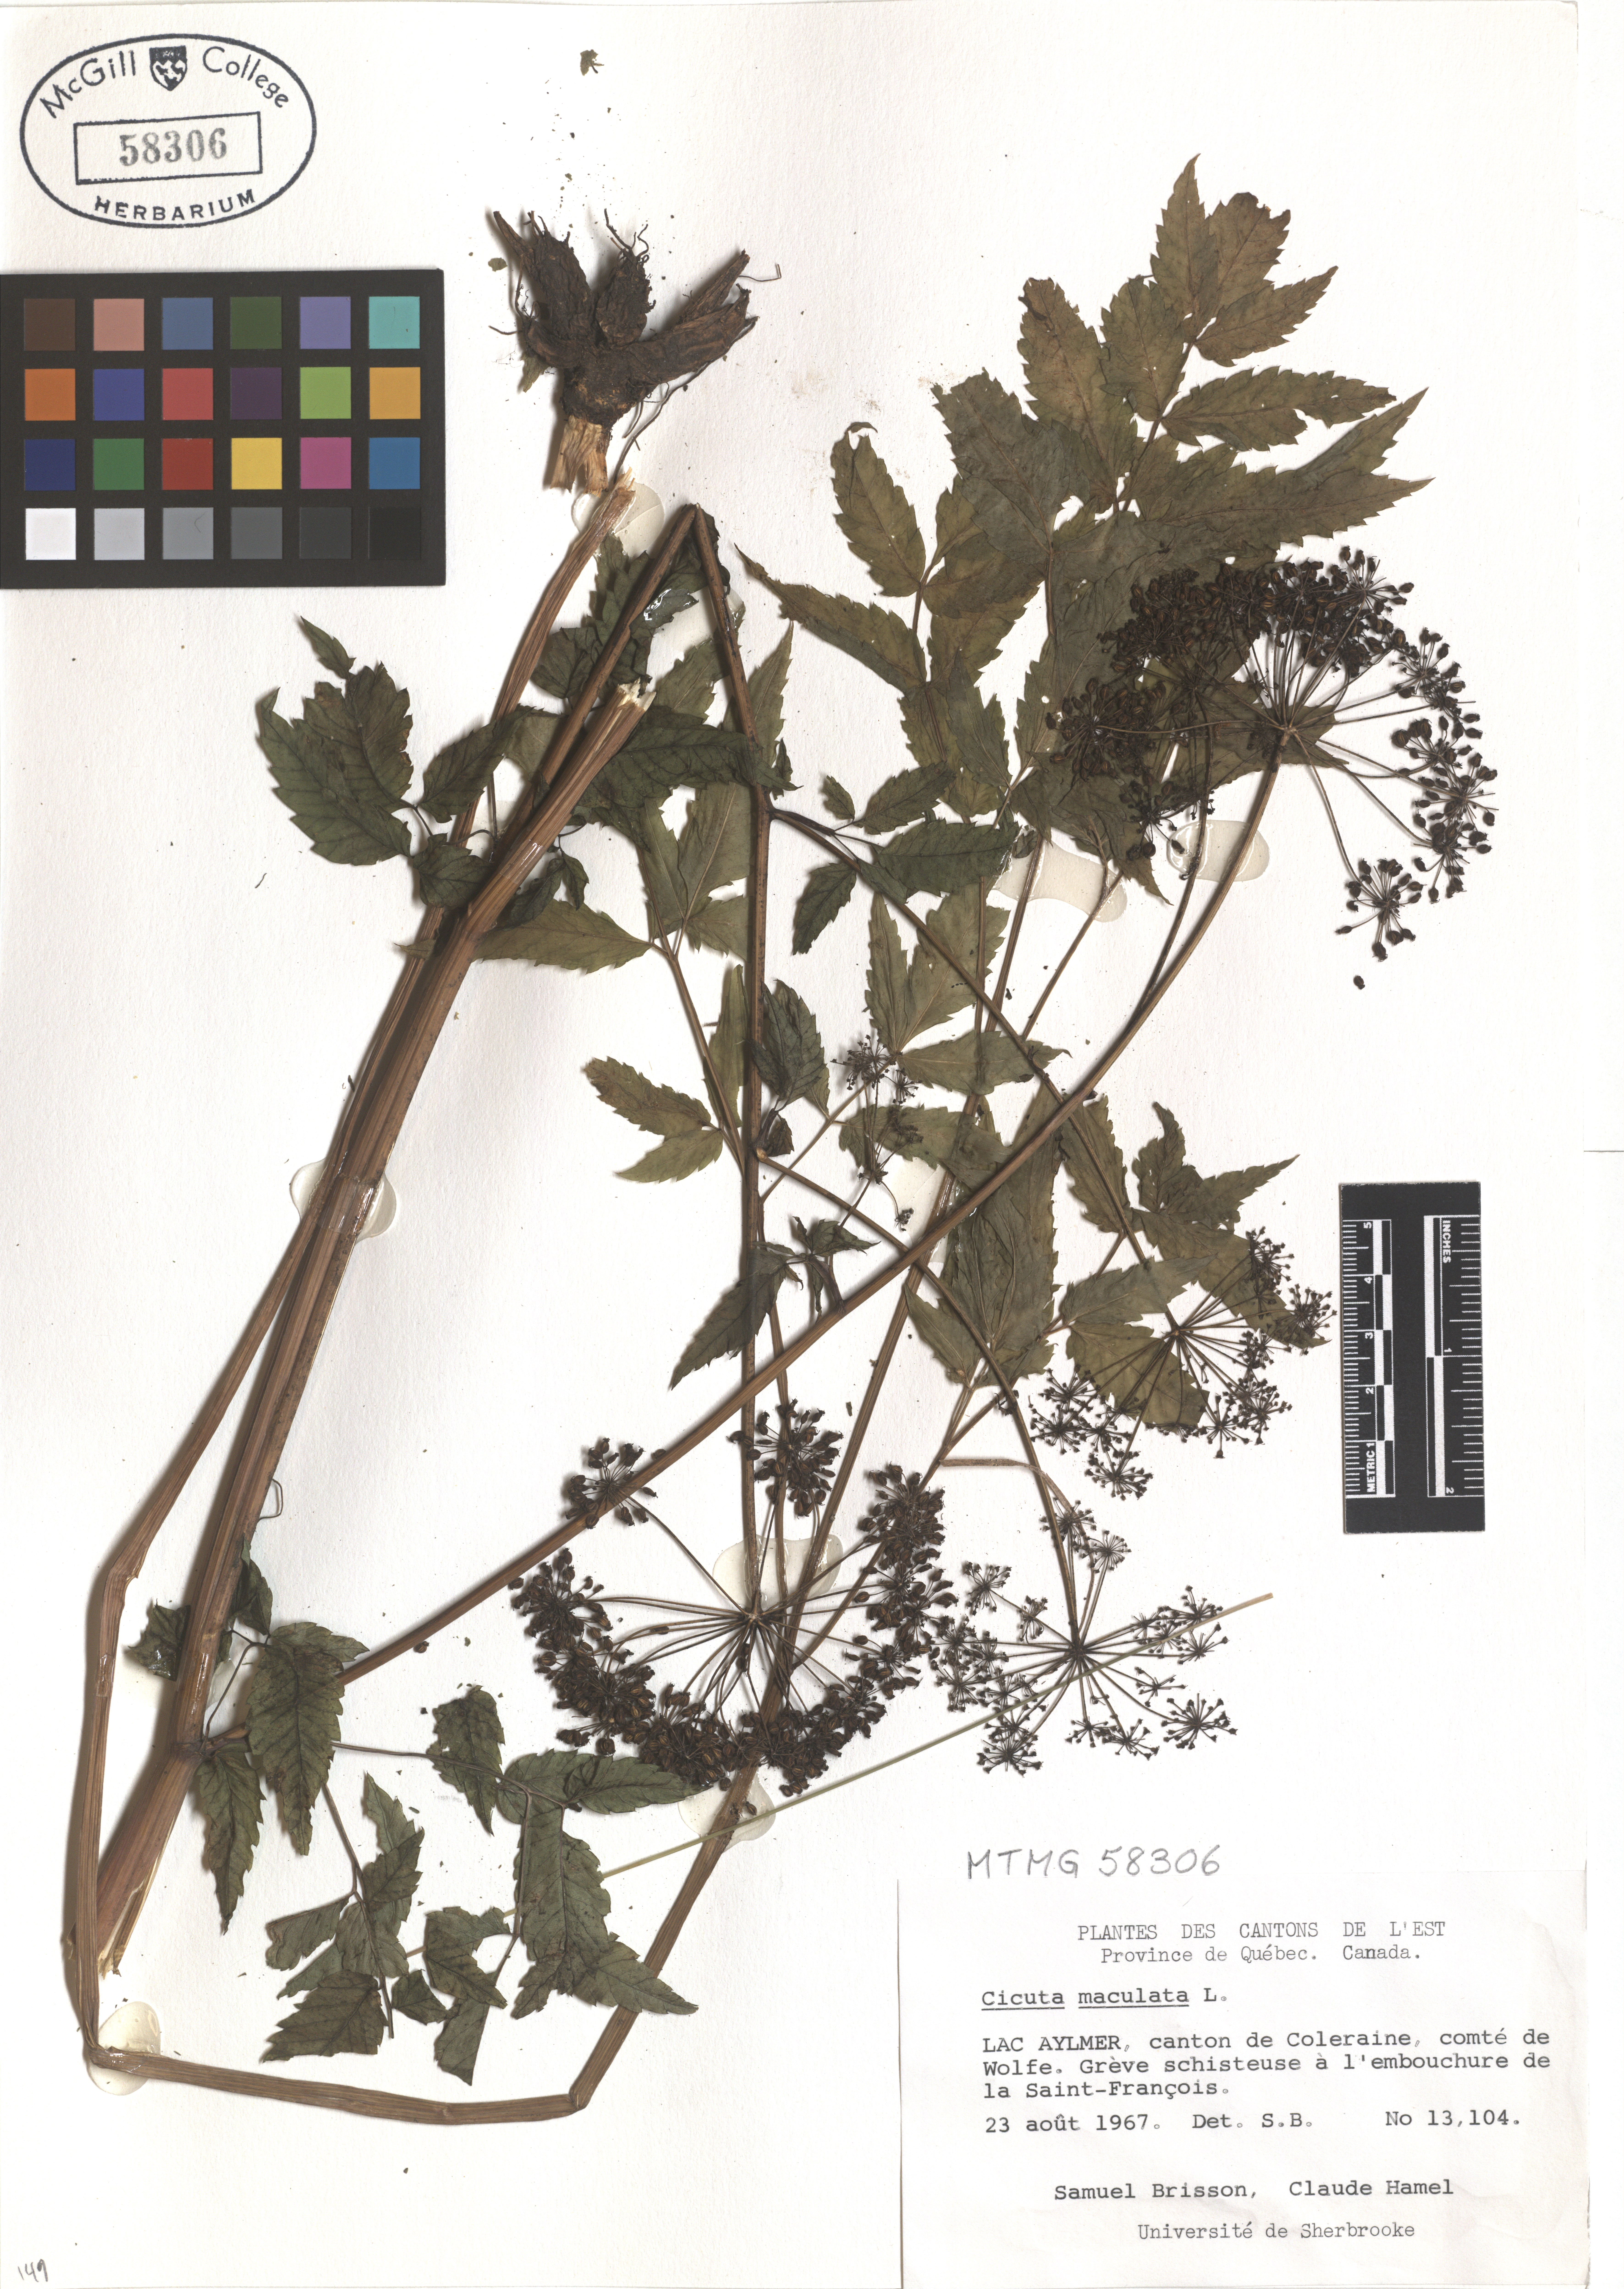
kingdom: Plantae
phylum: Tracheophyta
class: Magnoliopsida
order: Apiales
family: Apiaceae
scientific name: Apiaceae
